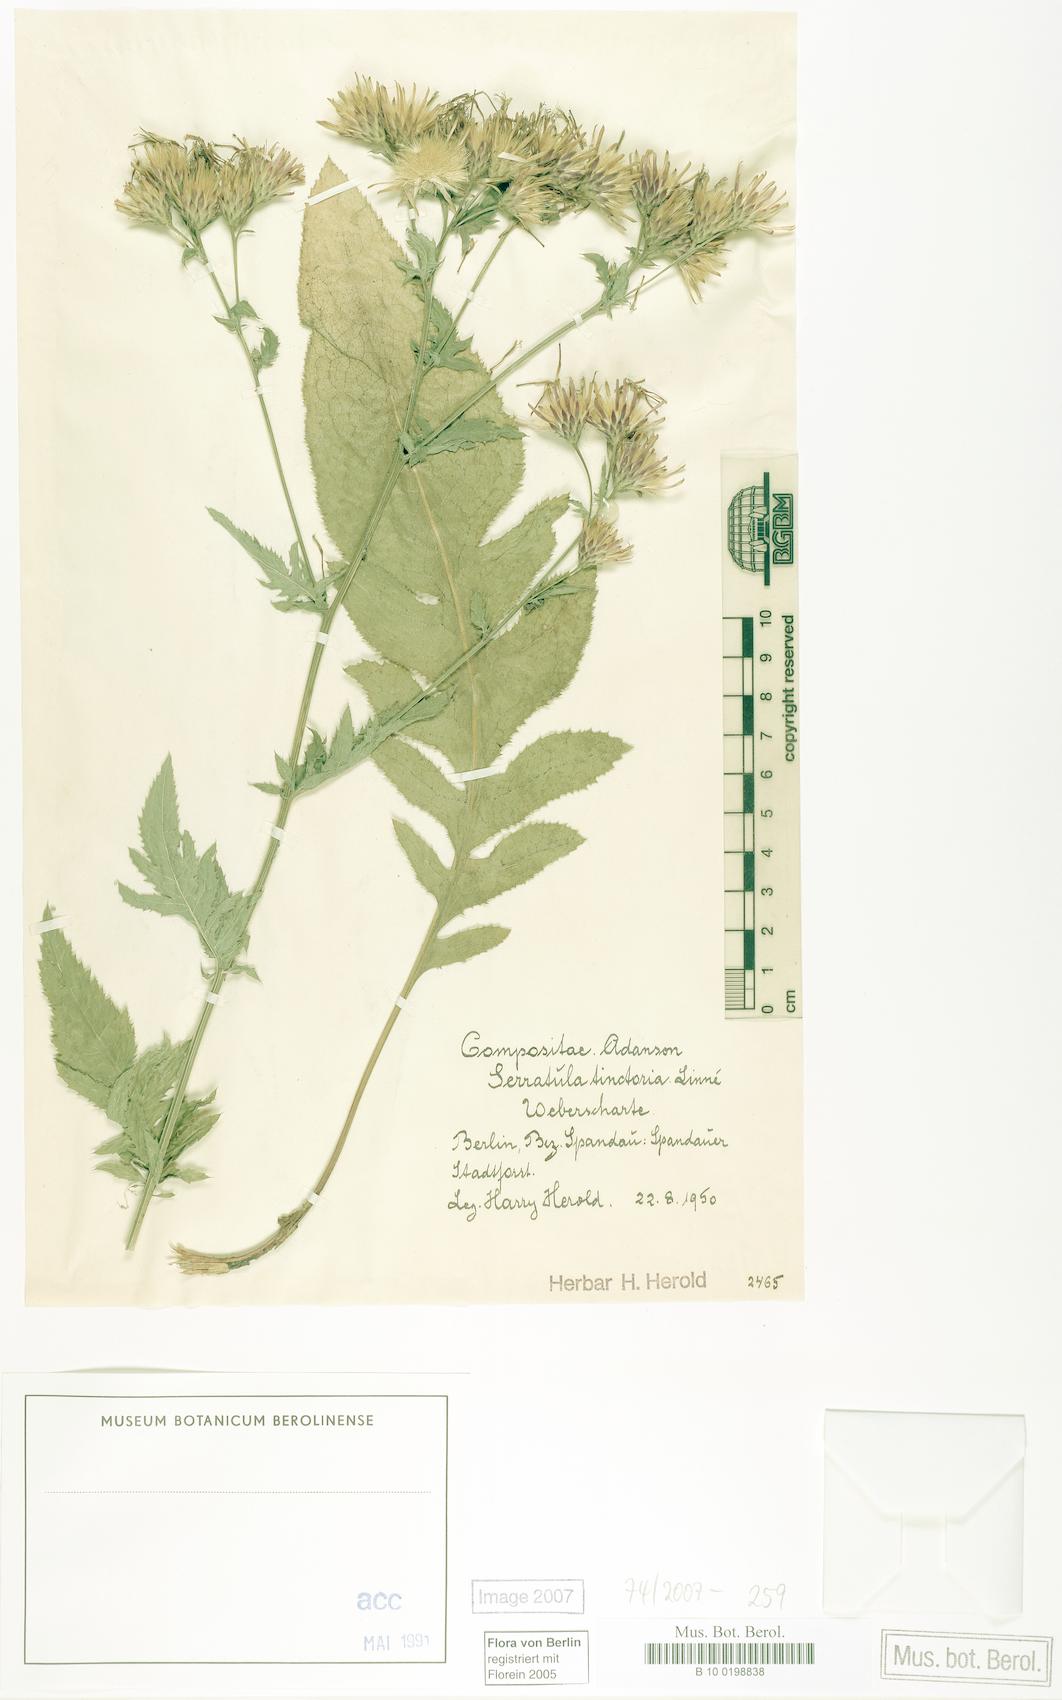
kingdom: Plantae
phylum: Tracheophyta
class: Magnoliopsida
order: Asterales
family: Asteraceae
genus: Serratula
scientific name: Serratula tinctoria
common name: Saw-wort
